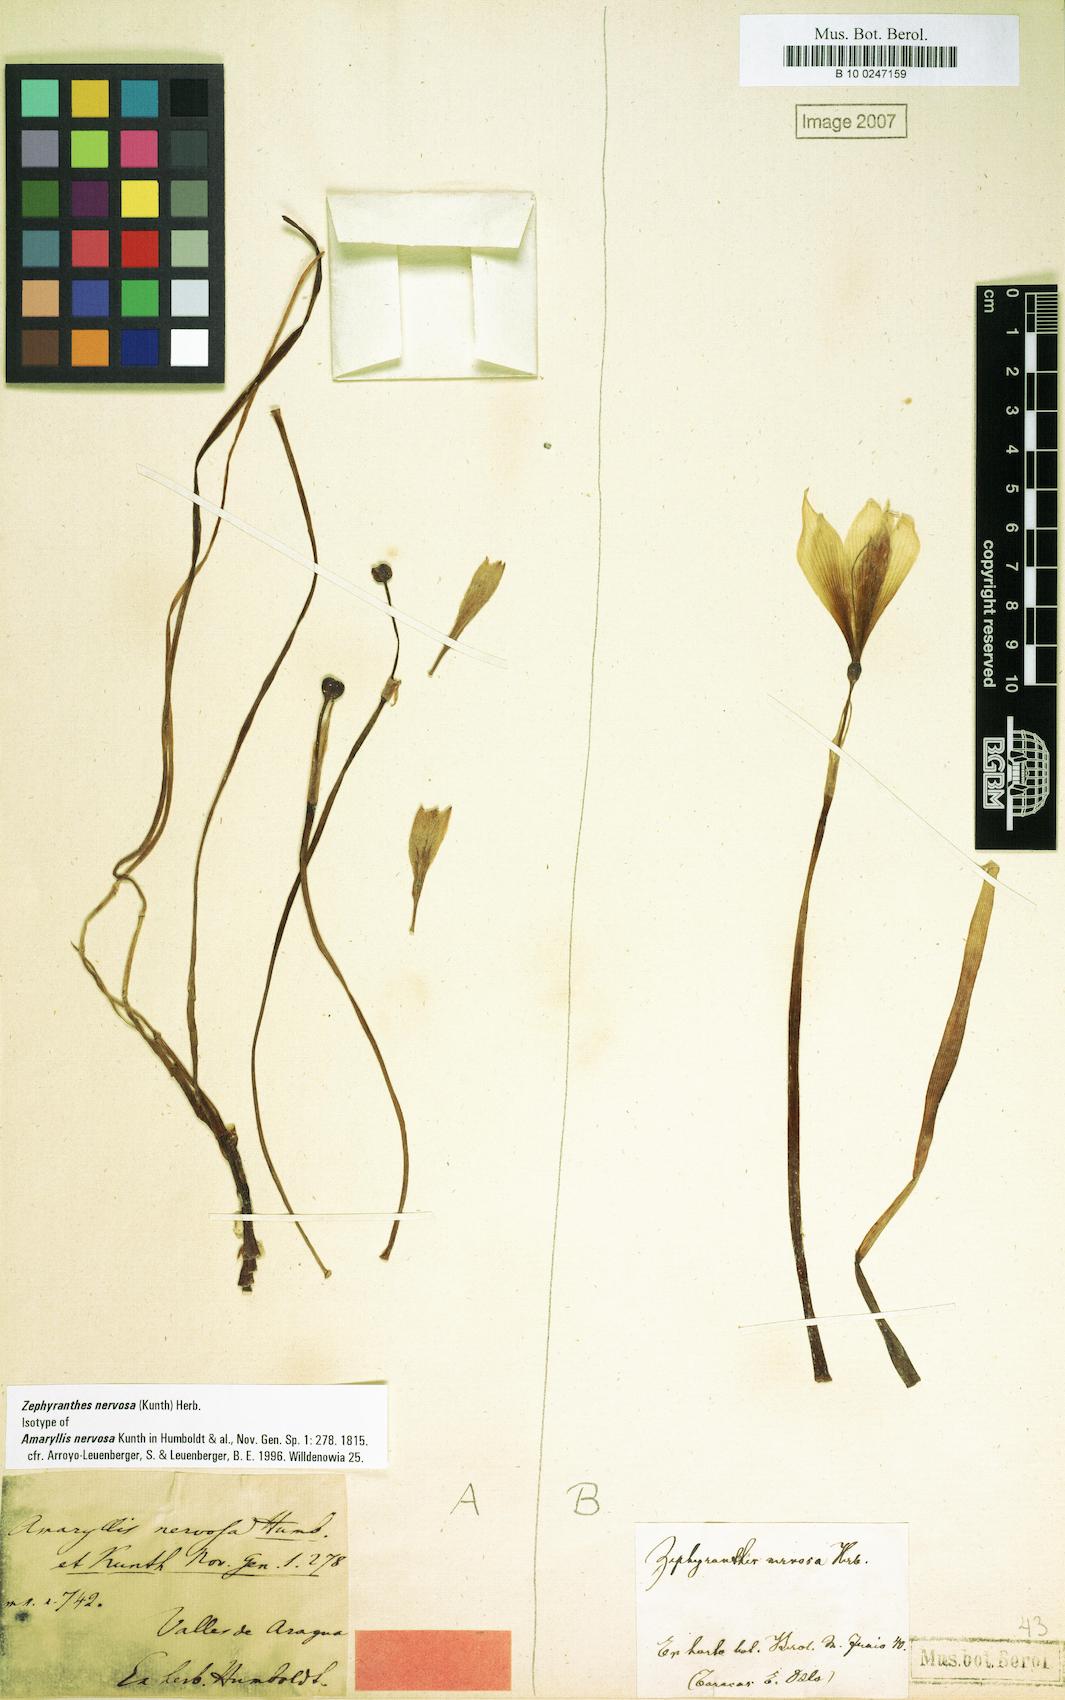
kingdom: Plantae
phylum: Tracheophyta
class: Liliopsida
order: Asparagales
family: Amaryllidaceae
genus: Zephyranthes
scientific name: Zephyranthes nervosa
